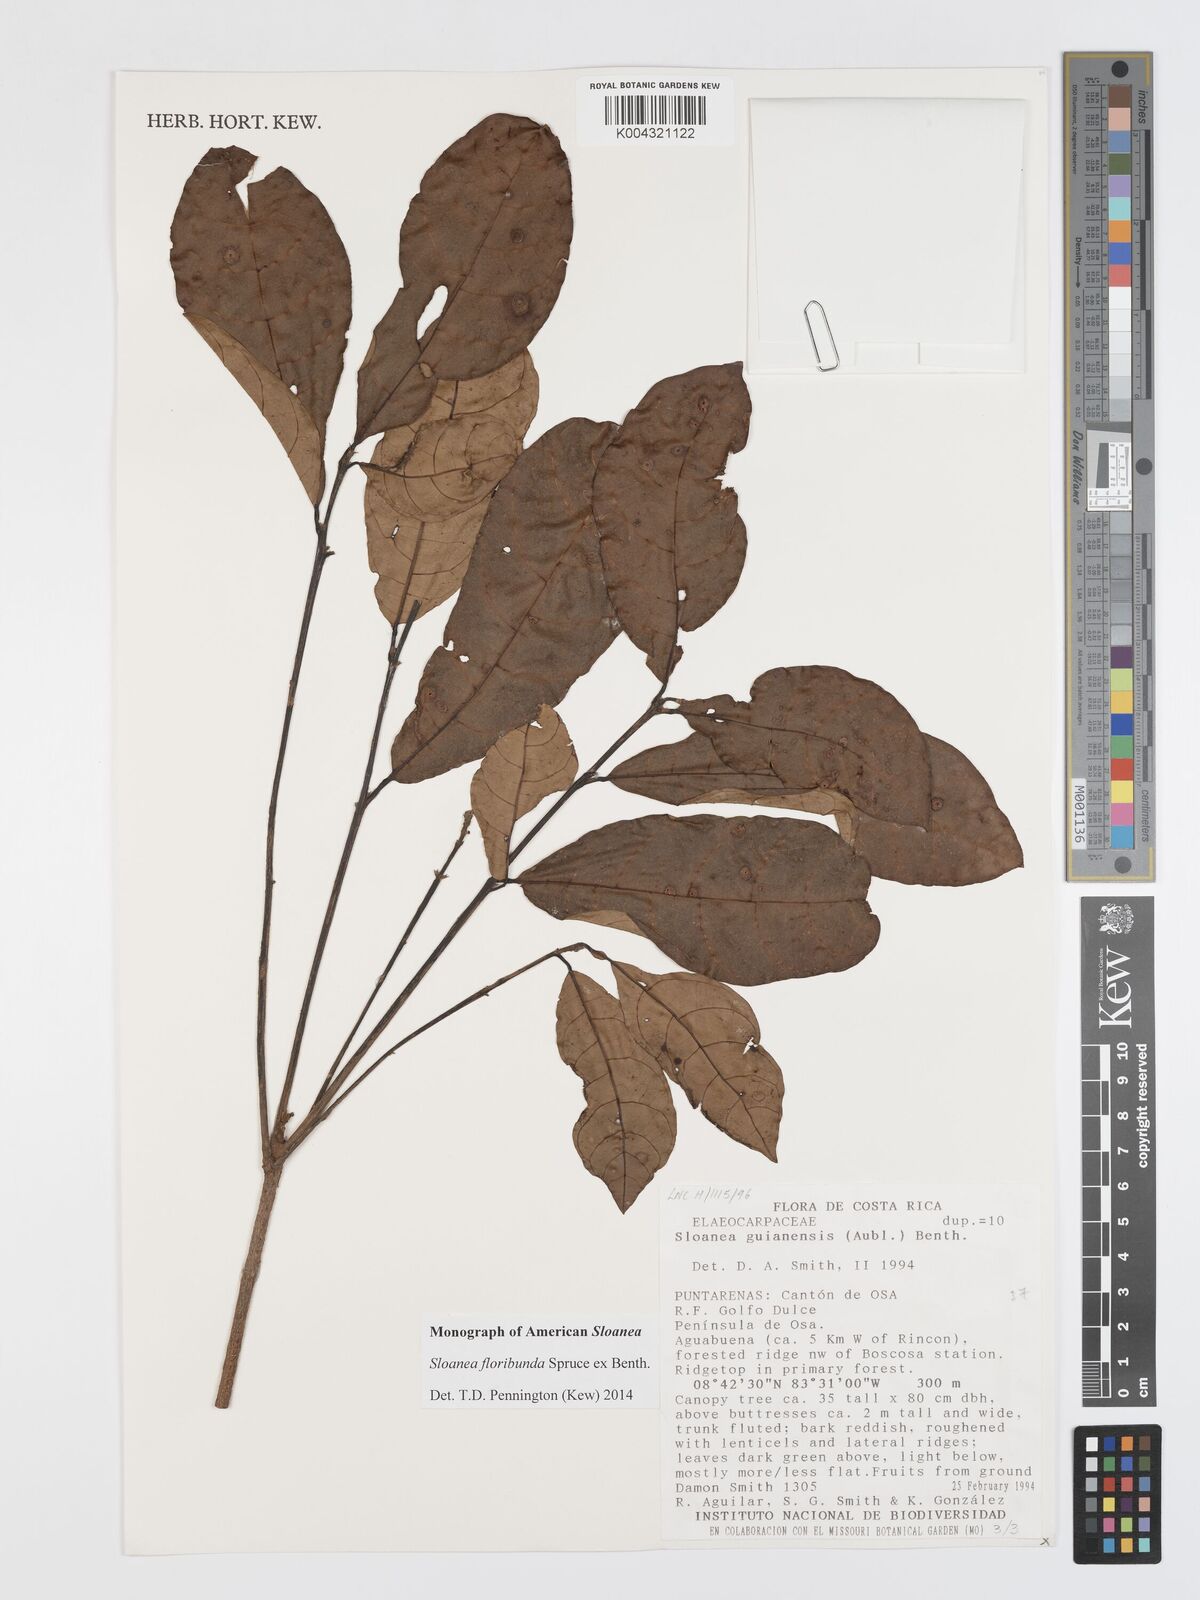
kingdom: Plantae
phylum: Tracheophyta
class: Magnoliopsida
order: Oxalidales
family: Elaeocarpaceae
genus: Sloanea
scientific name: Sloanea floribunda
